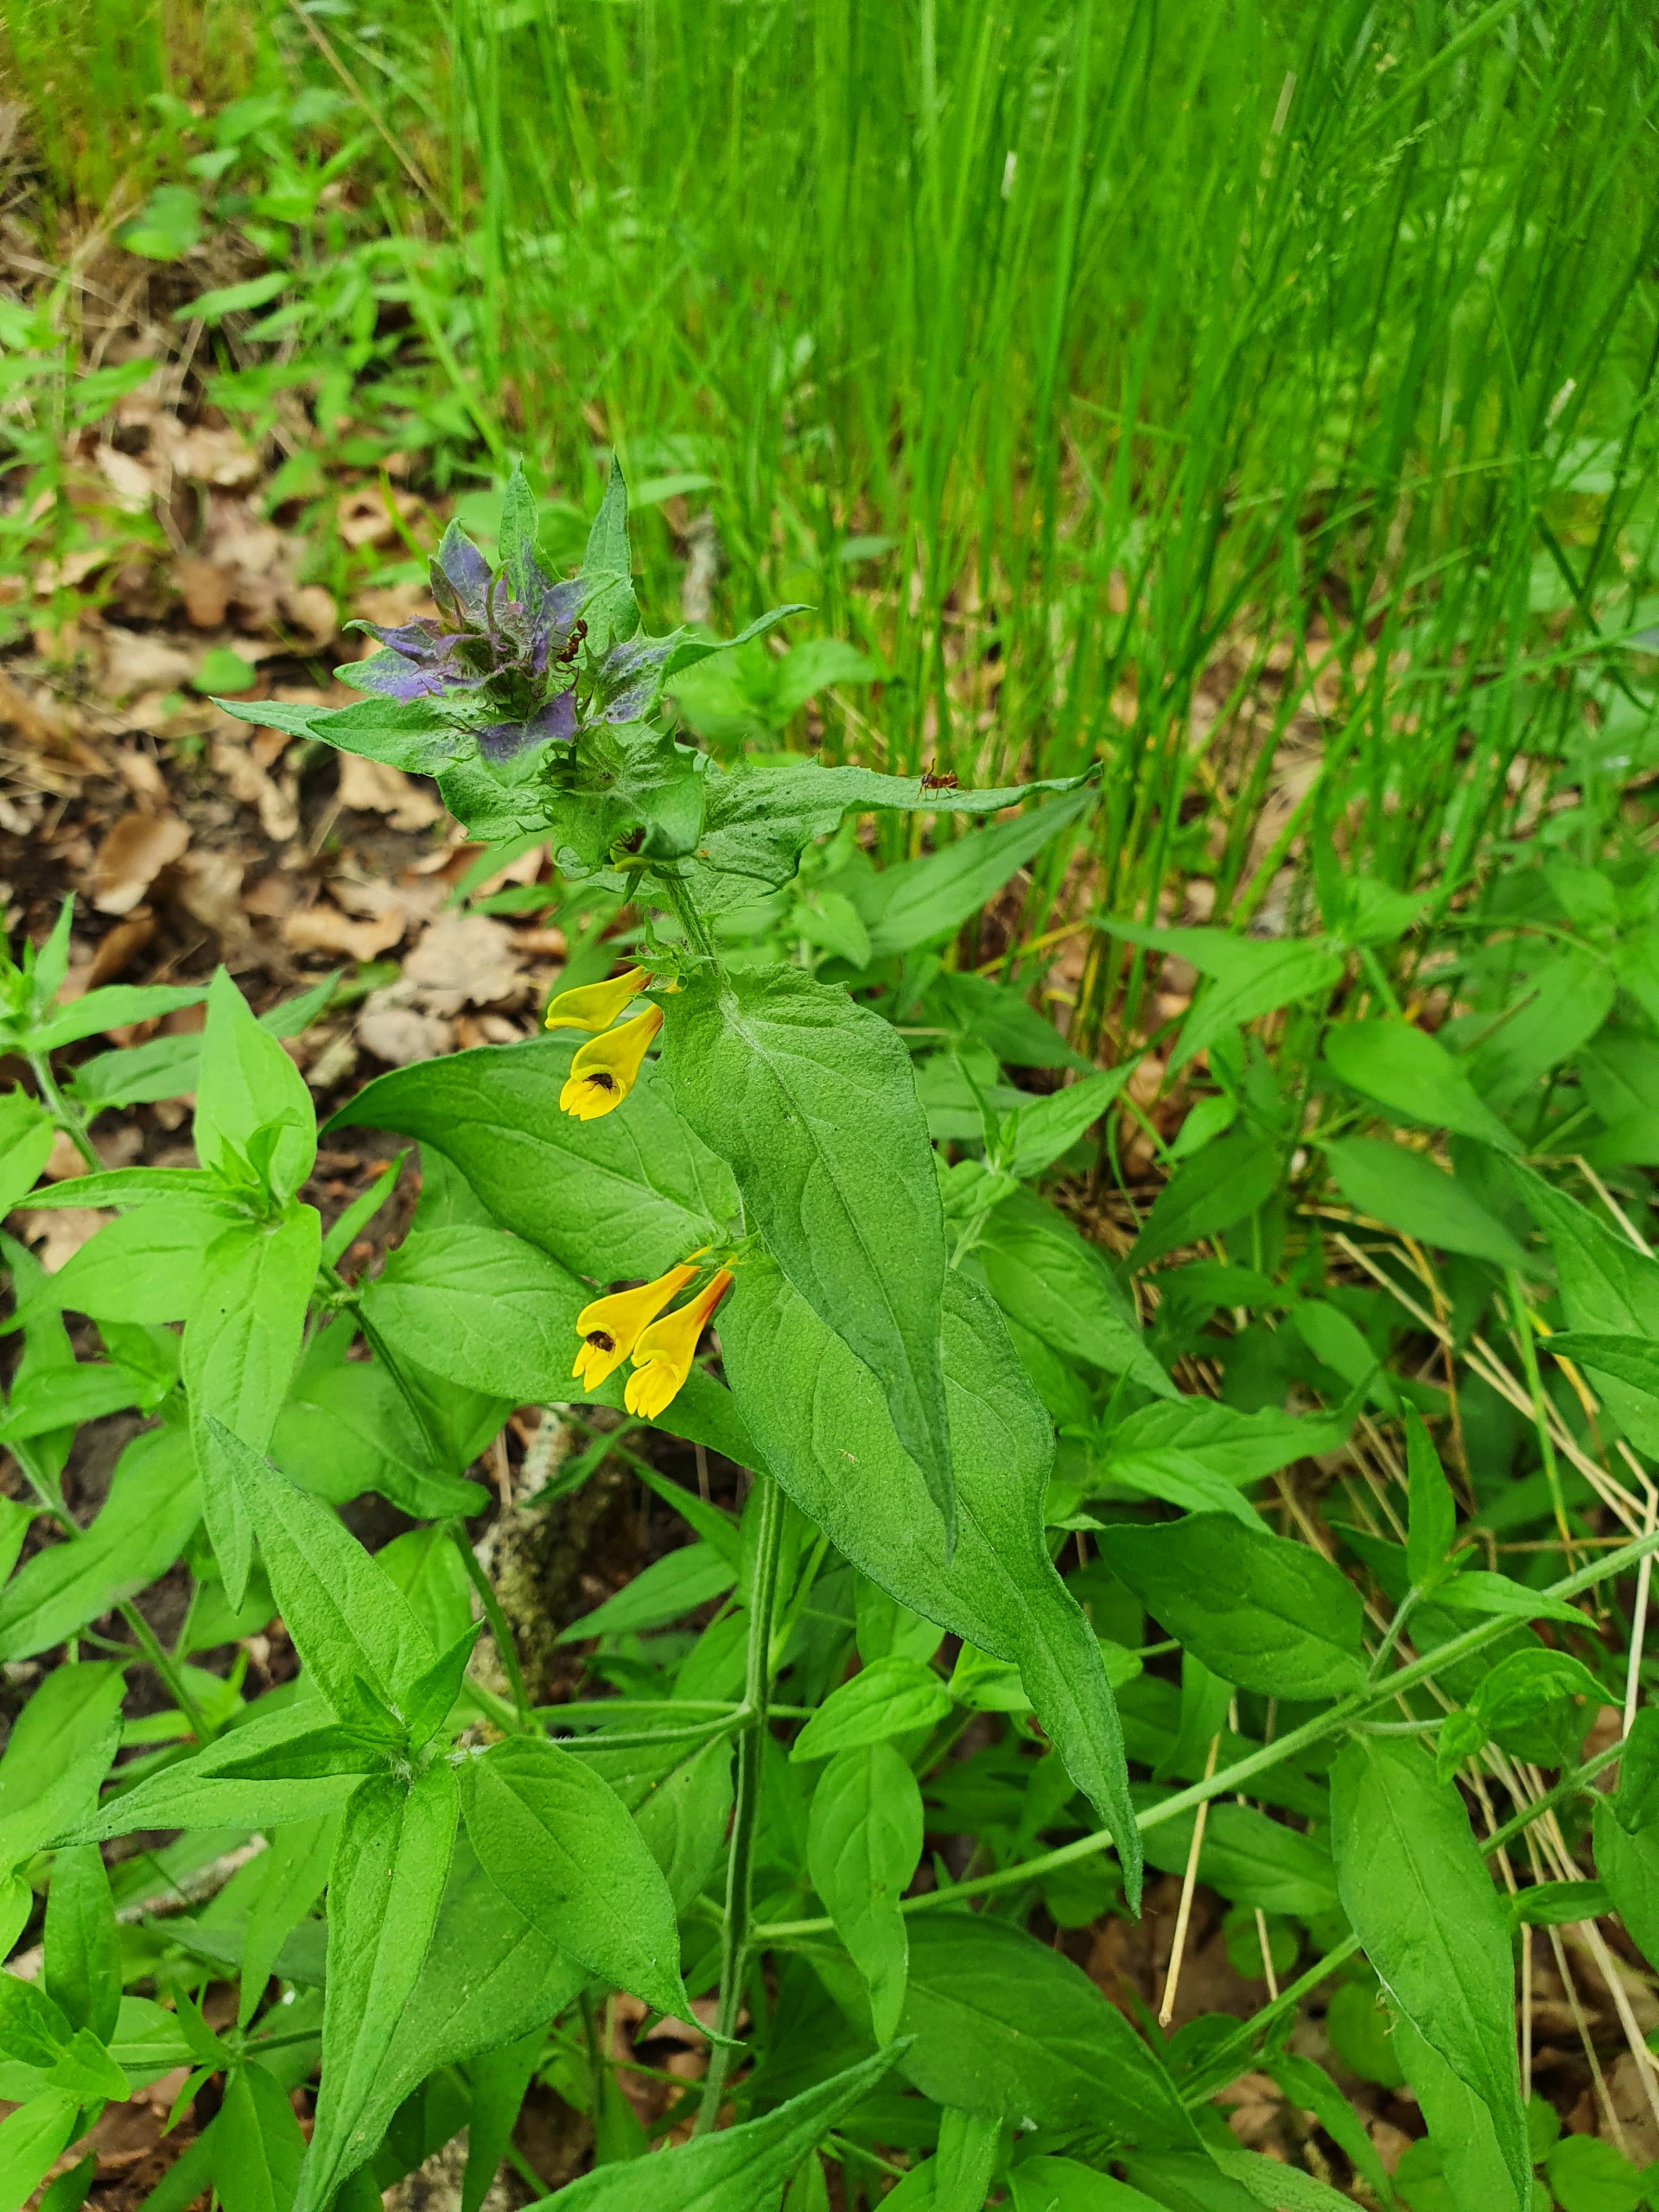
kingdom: Plantae
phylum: Tracheophyta
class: Magnoliopsida
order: Lamiales
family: Orobanchaceae
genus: Melampyrum
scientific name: Melampyrum nemorosum
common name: Blåtoppet kohvede
